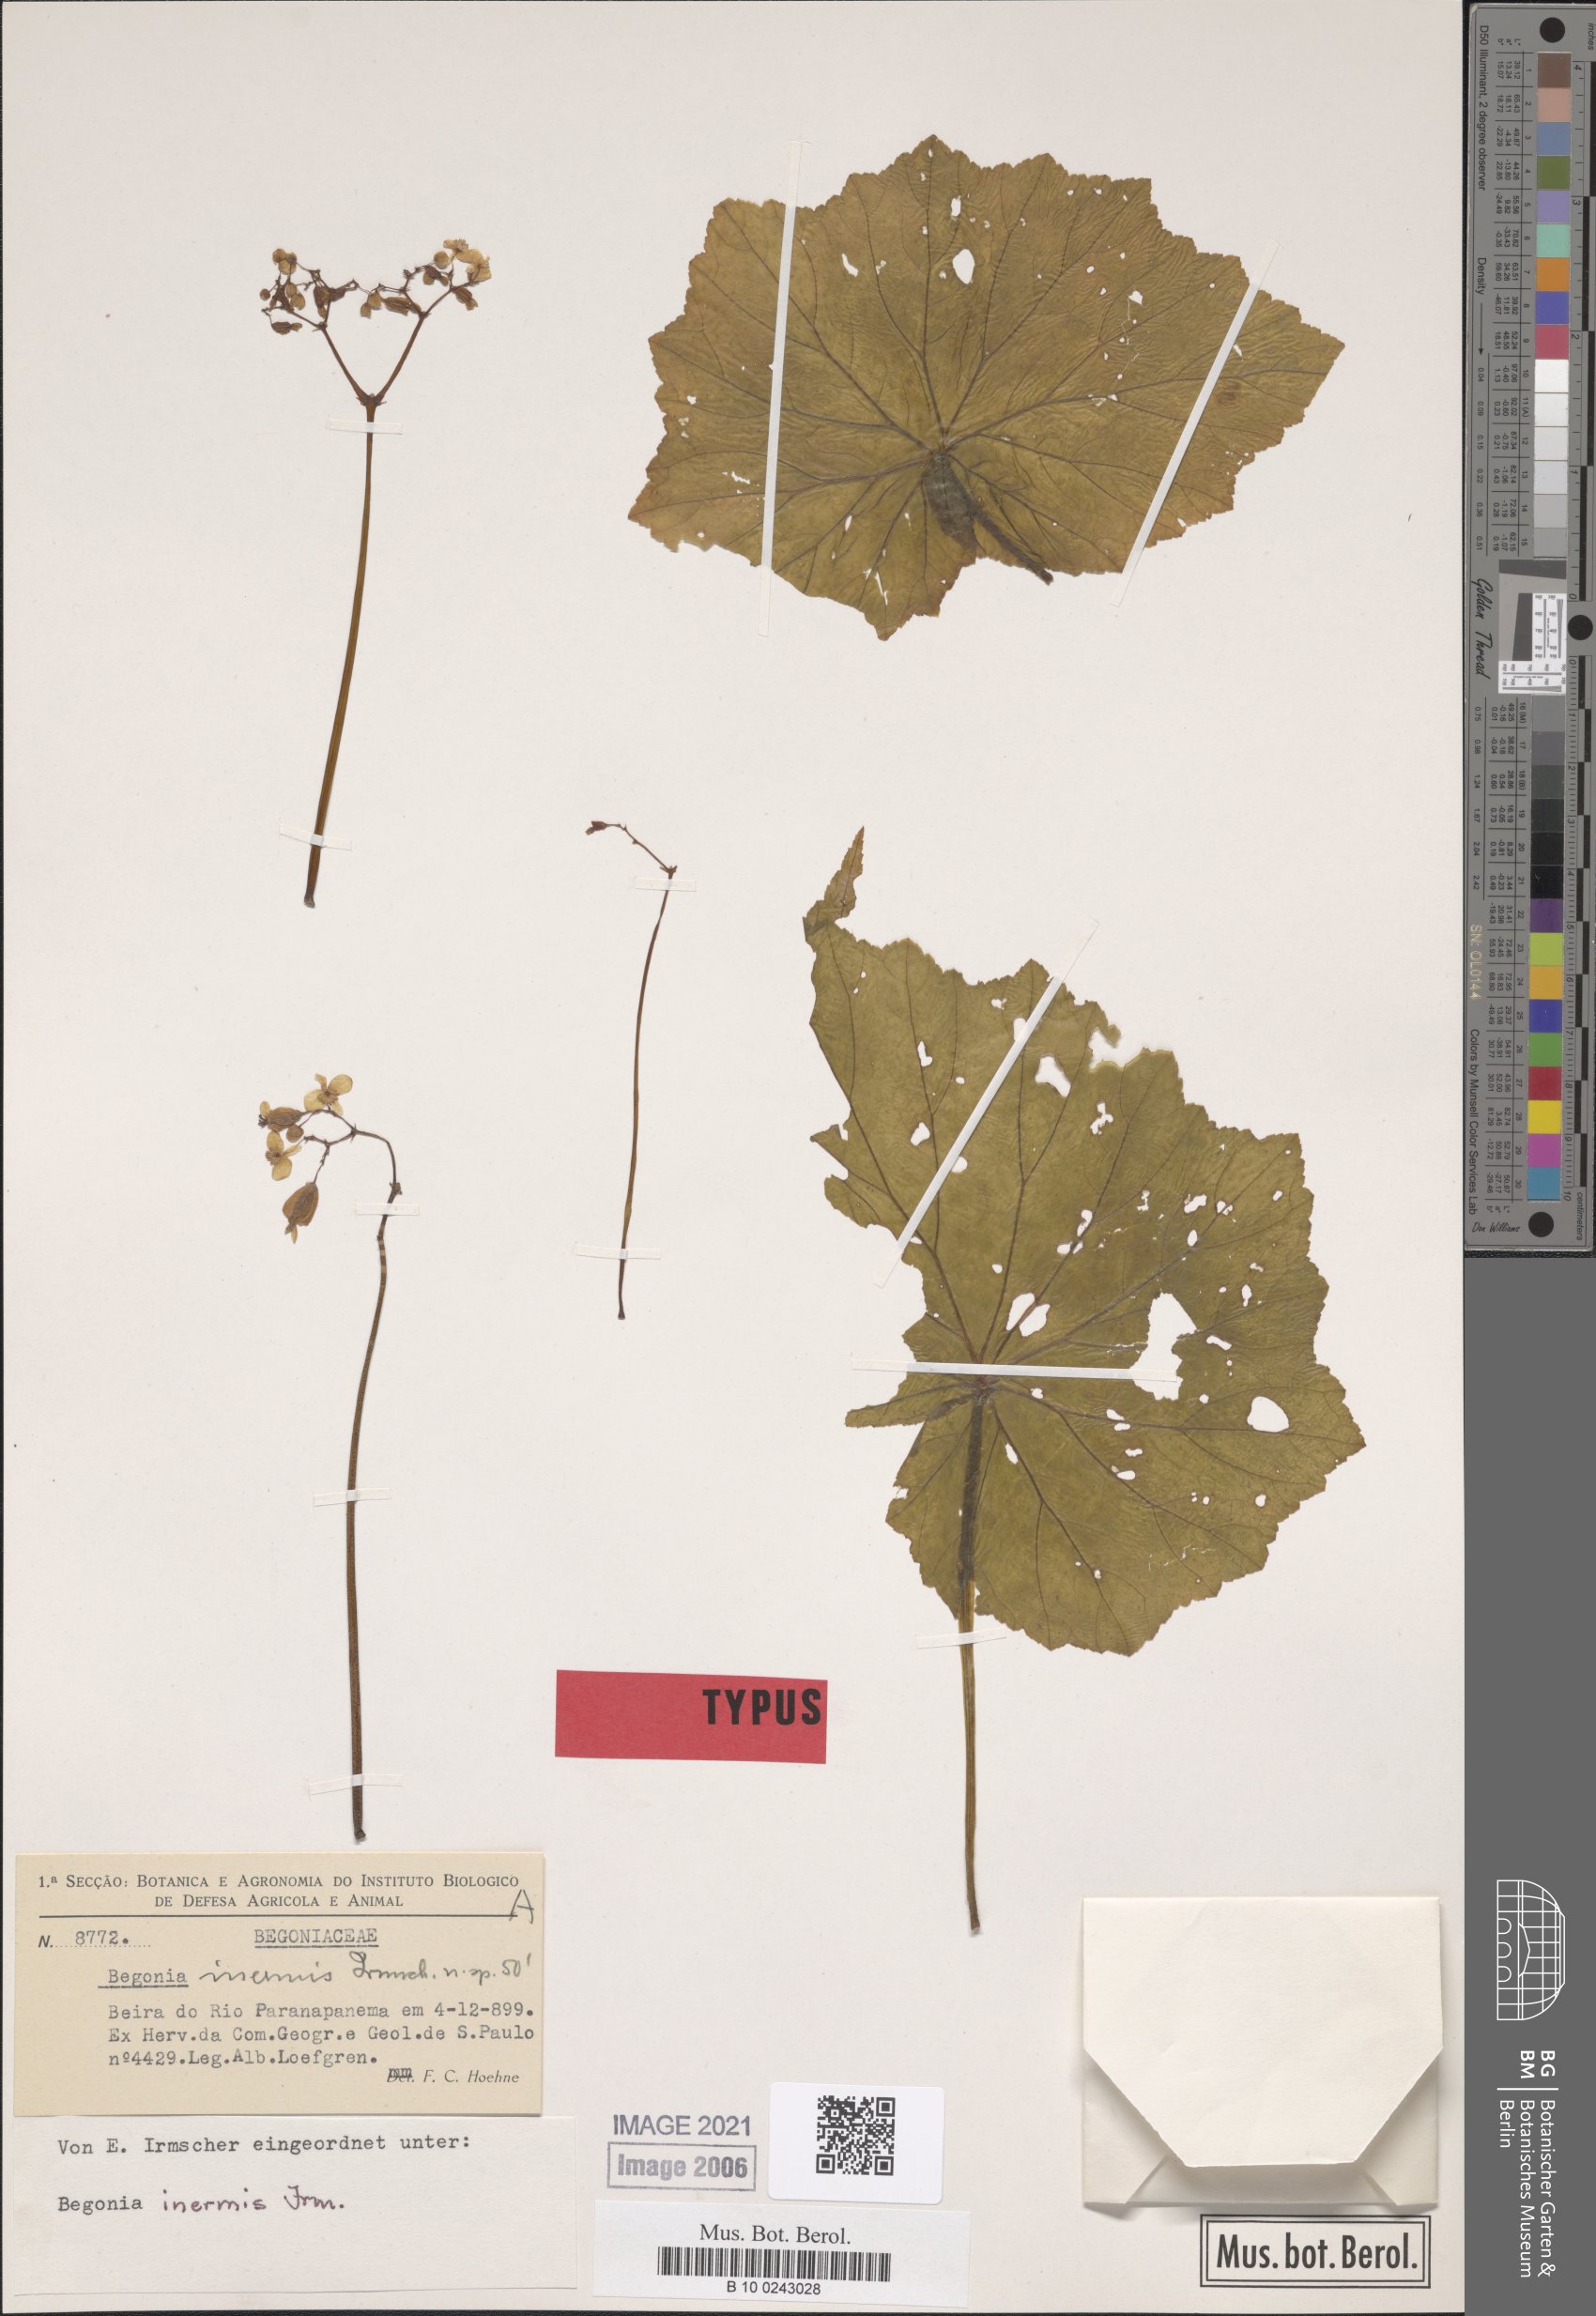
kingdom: Plantae
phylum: Tracheophyta
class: Magnoliopsida
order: Cucurbitales
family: Begoniaceae
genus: Begonia
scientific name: Begonia reniformis
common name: Grapeleaf begonia
